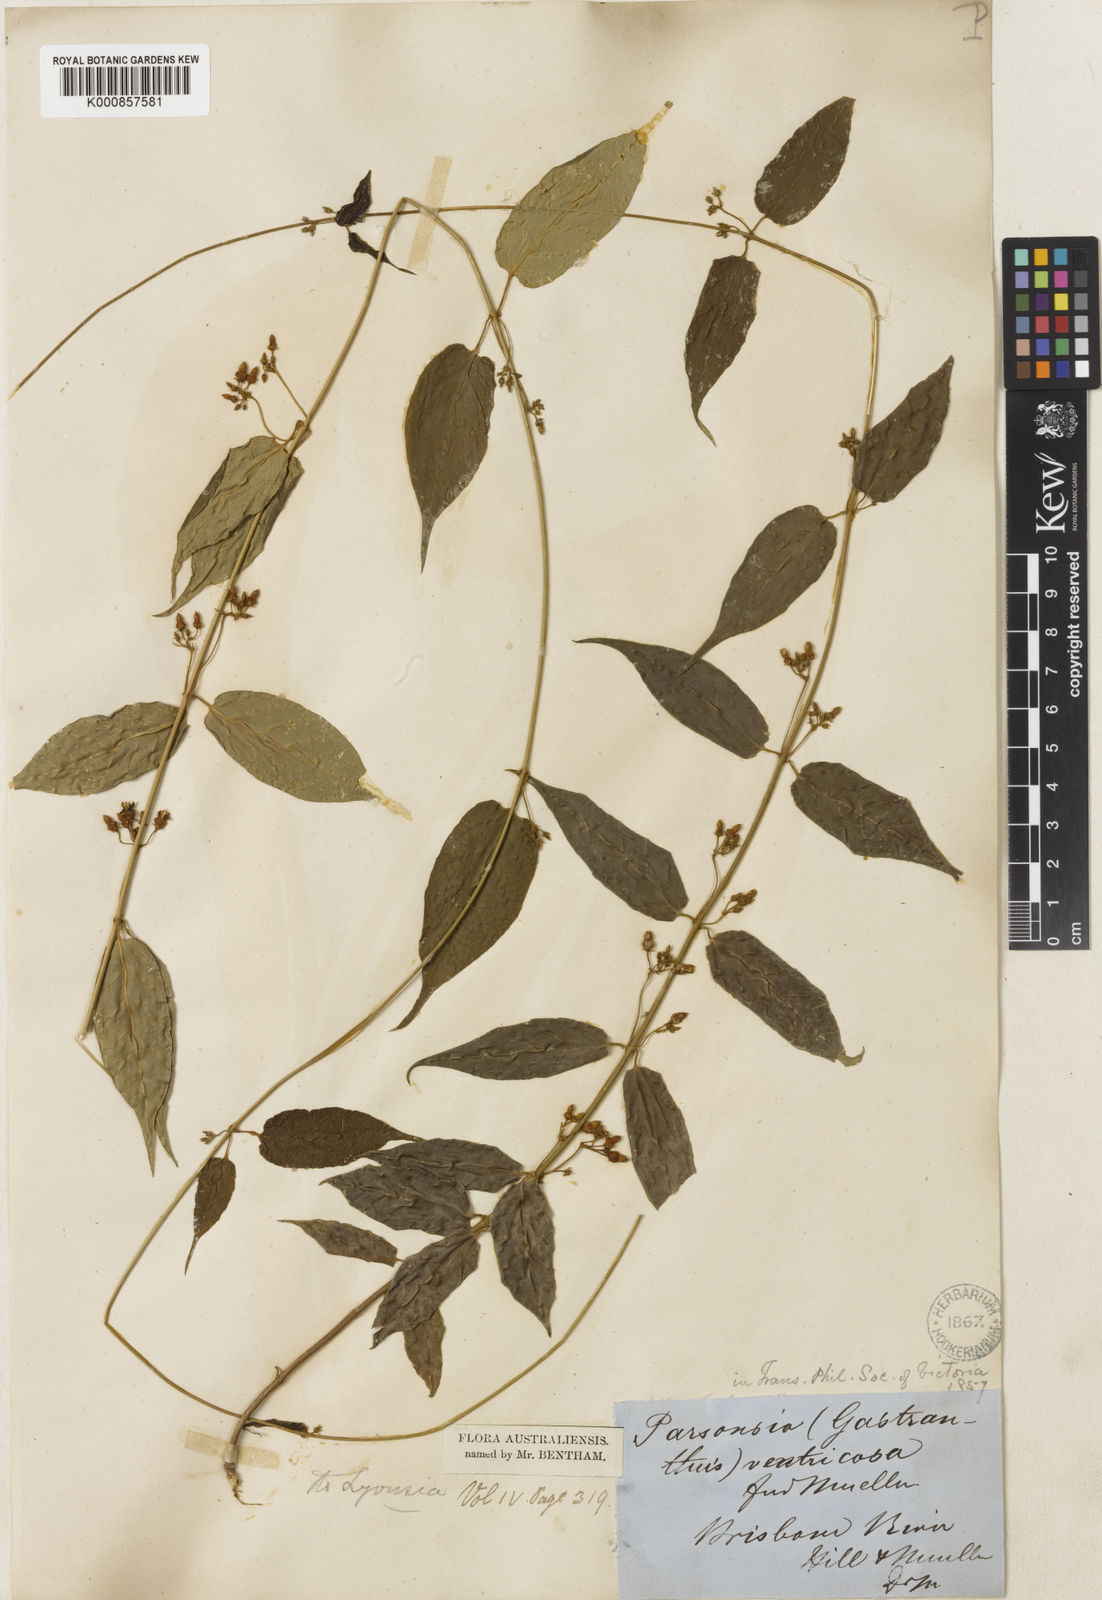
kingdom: Plantae
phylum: Tracheophyta
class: Magnoliopsida
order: Gentianales
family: Apocynaceae
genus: Parsonsia
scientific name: Parsonsia ventricosa
